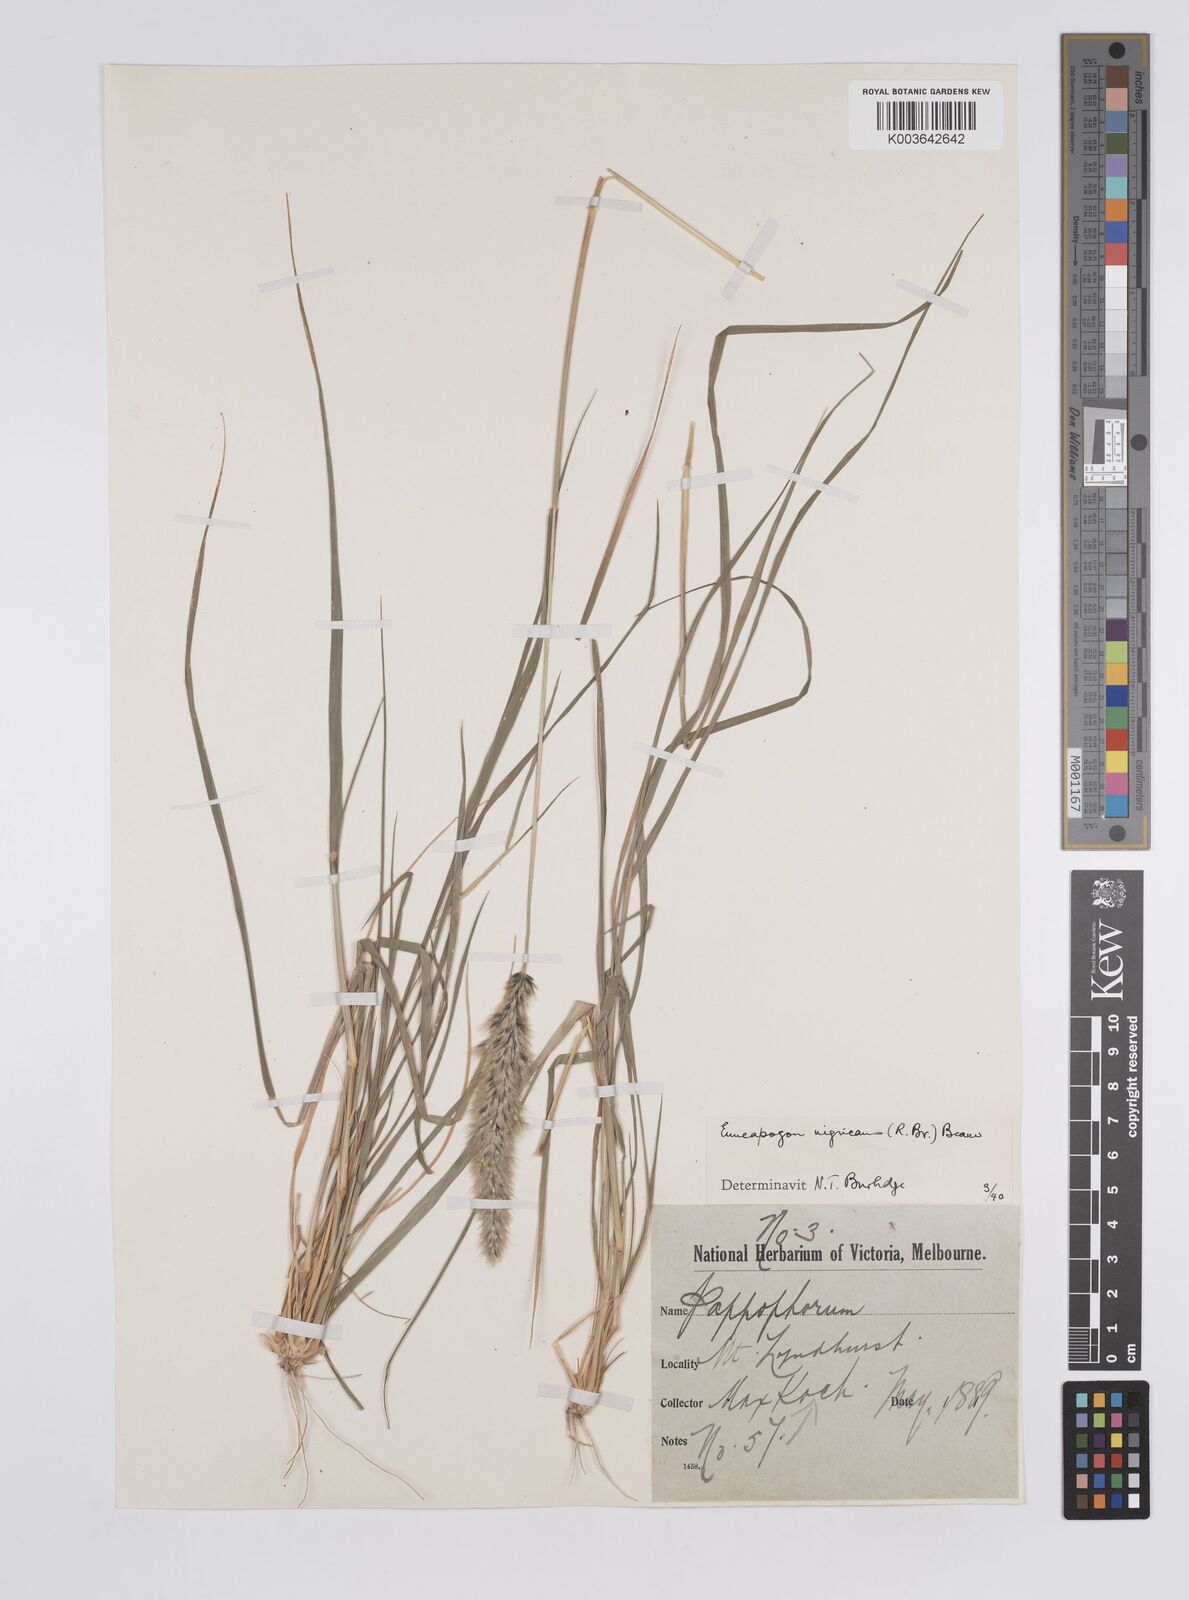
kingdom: Plantae
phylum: Tracheophyta
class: Liliopsida
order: Poales
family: Poaceae
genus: Enneapogon
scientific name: Enneapogon nigricans
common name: Pappus grass
